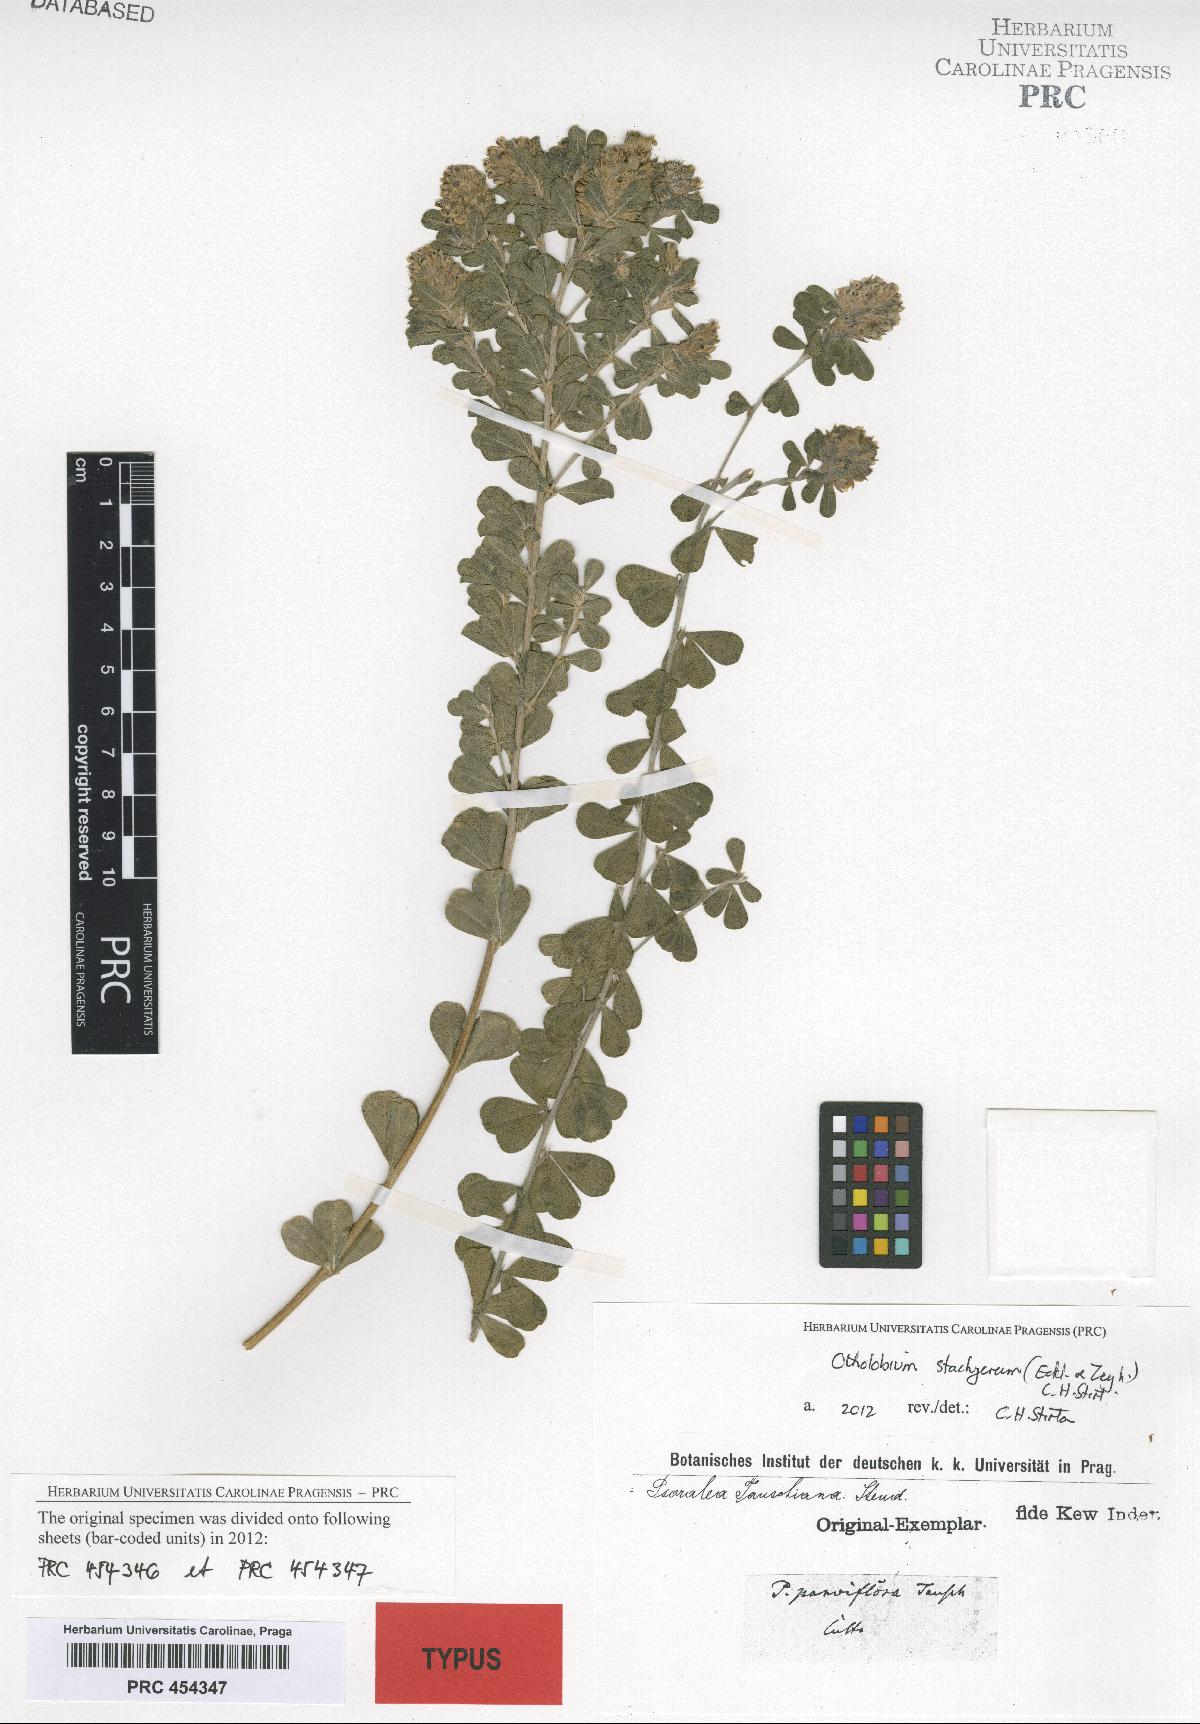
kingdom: Plantae
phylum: Tracheophyta
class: Magnoliopsida
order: Fabales
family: Fabaceae
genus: Psoralea
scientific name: Psoralea tauschiana
